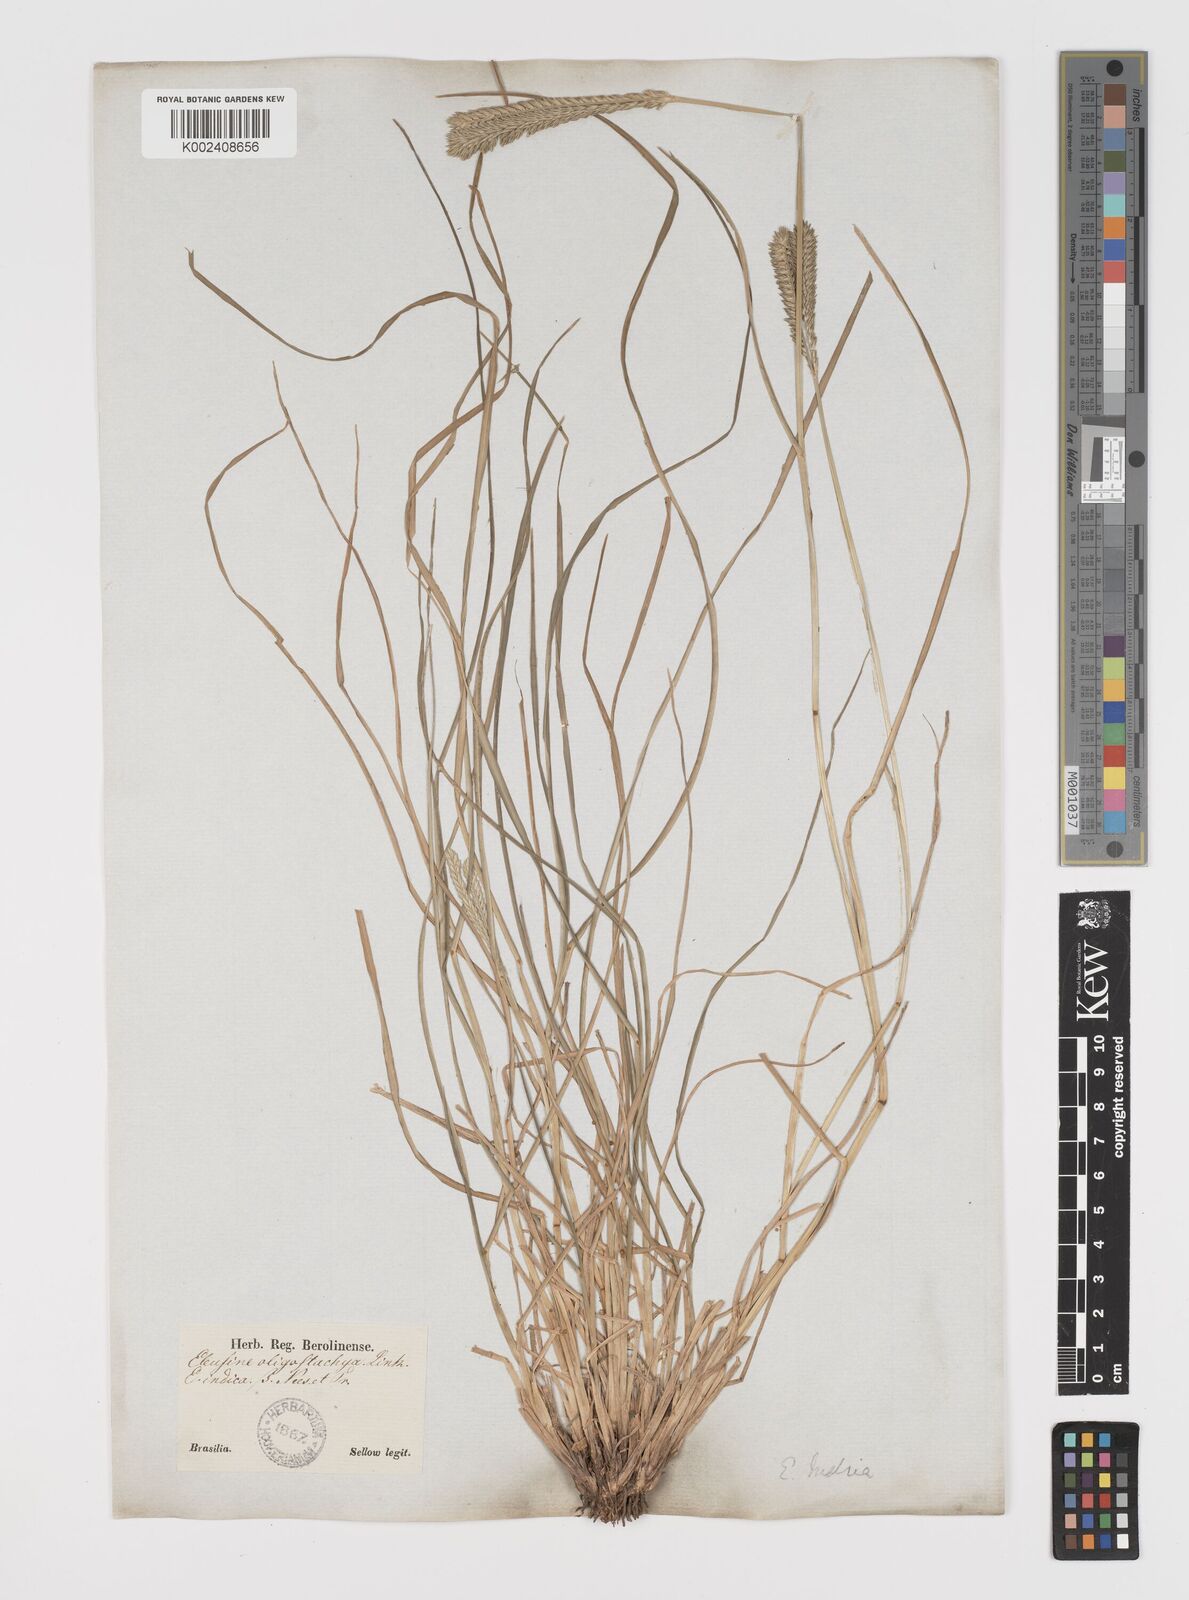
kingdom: Plantae
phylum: Tracheophyta
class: Liliopsida
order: Poales
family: Poaceae
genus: Eleusine
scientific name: Eleusine tristachya
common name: American yard-grass
